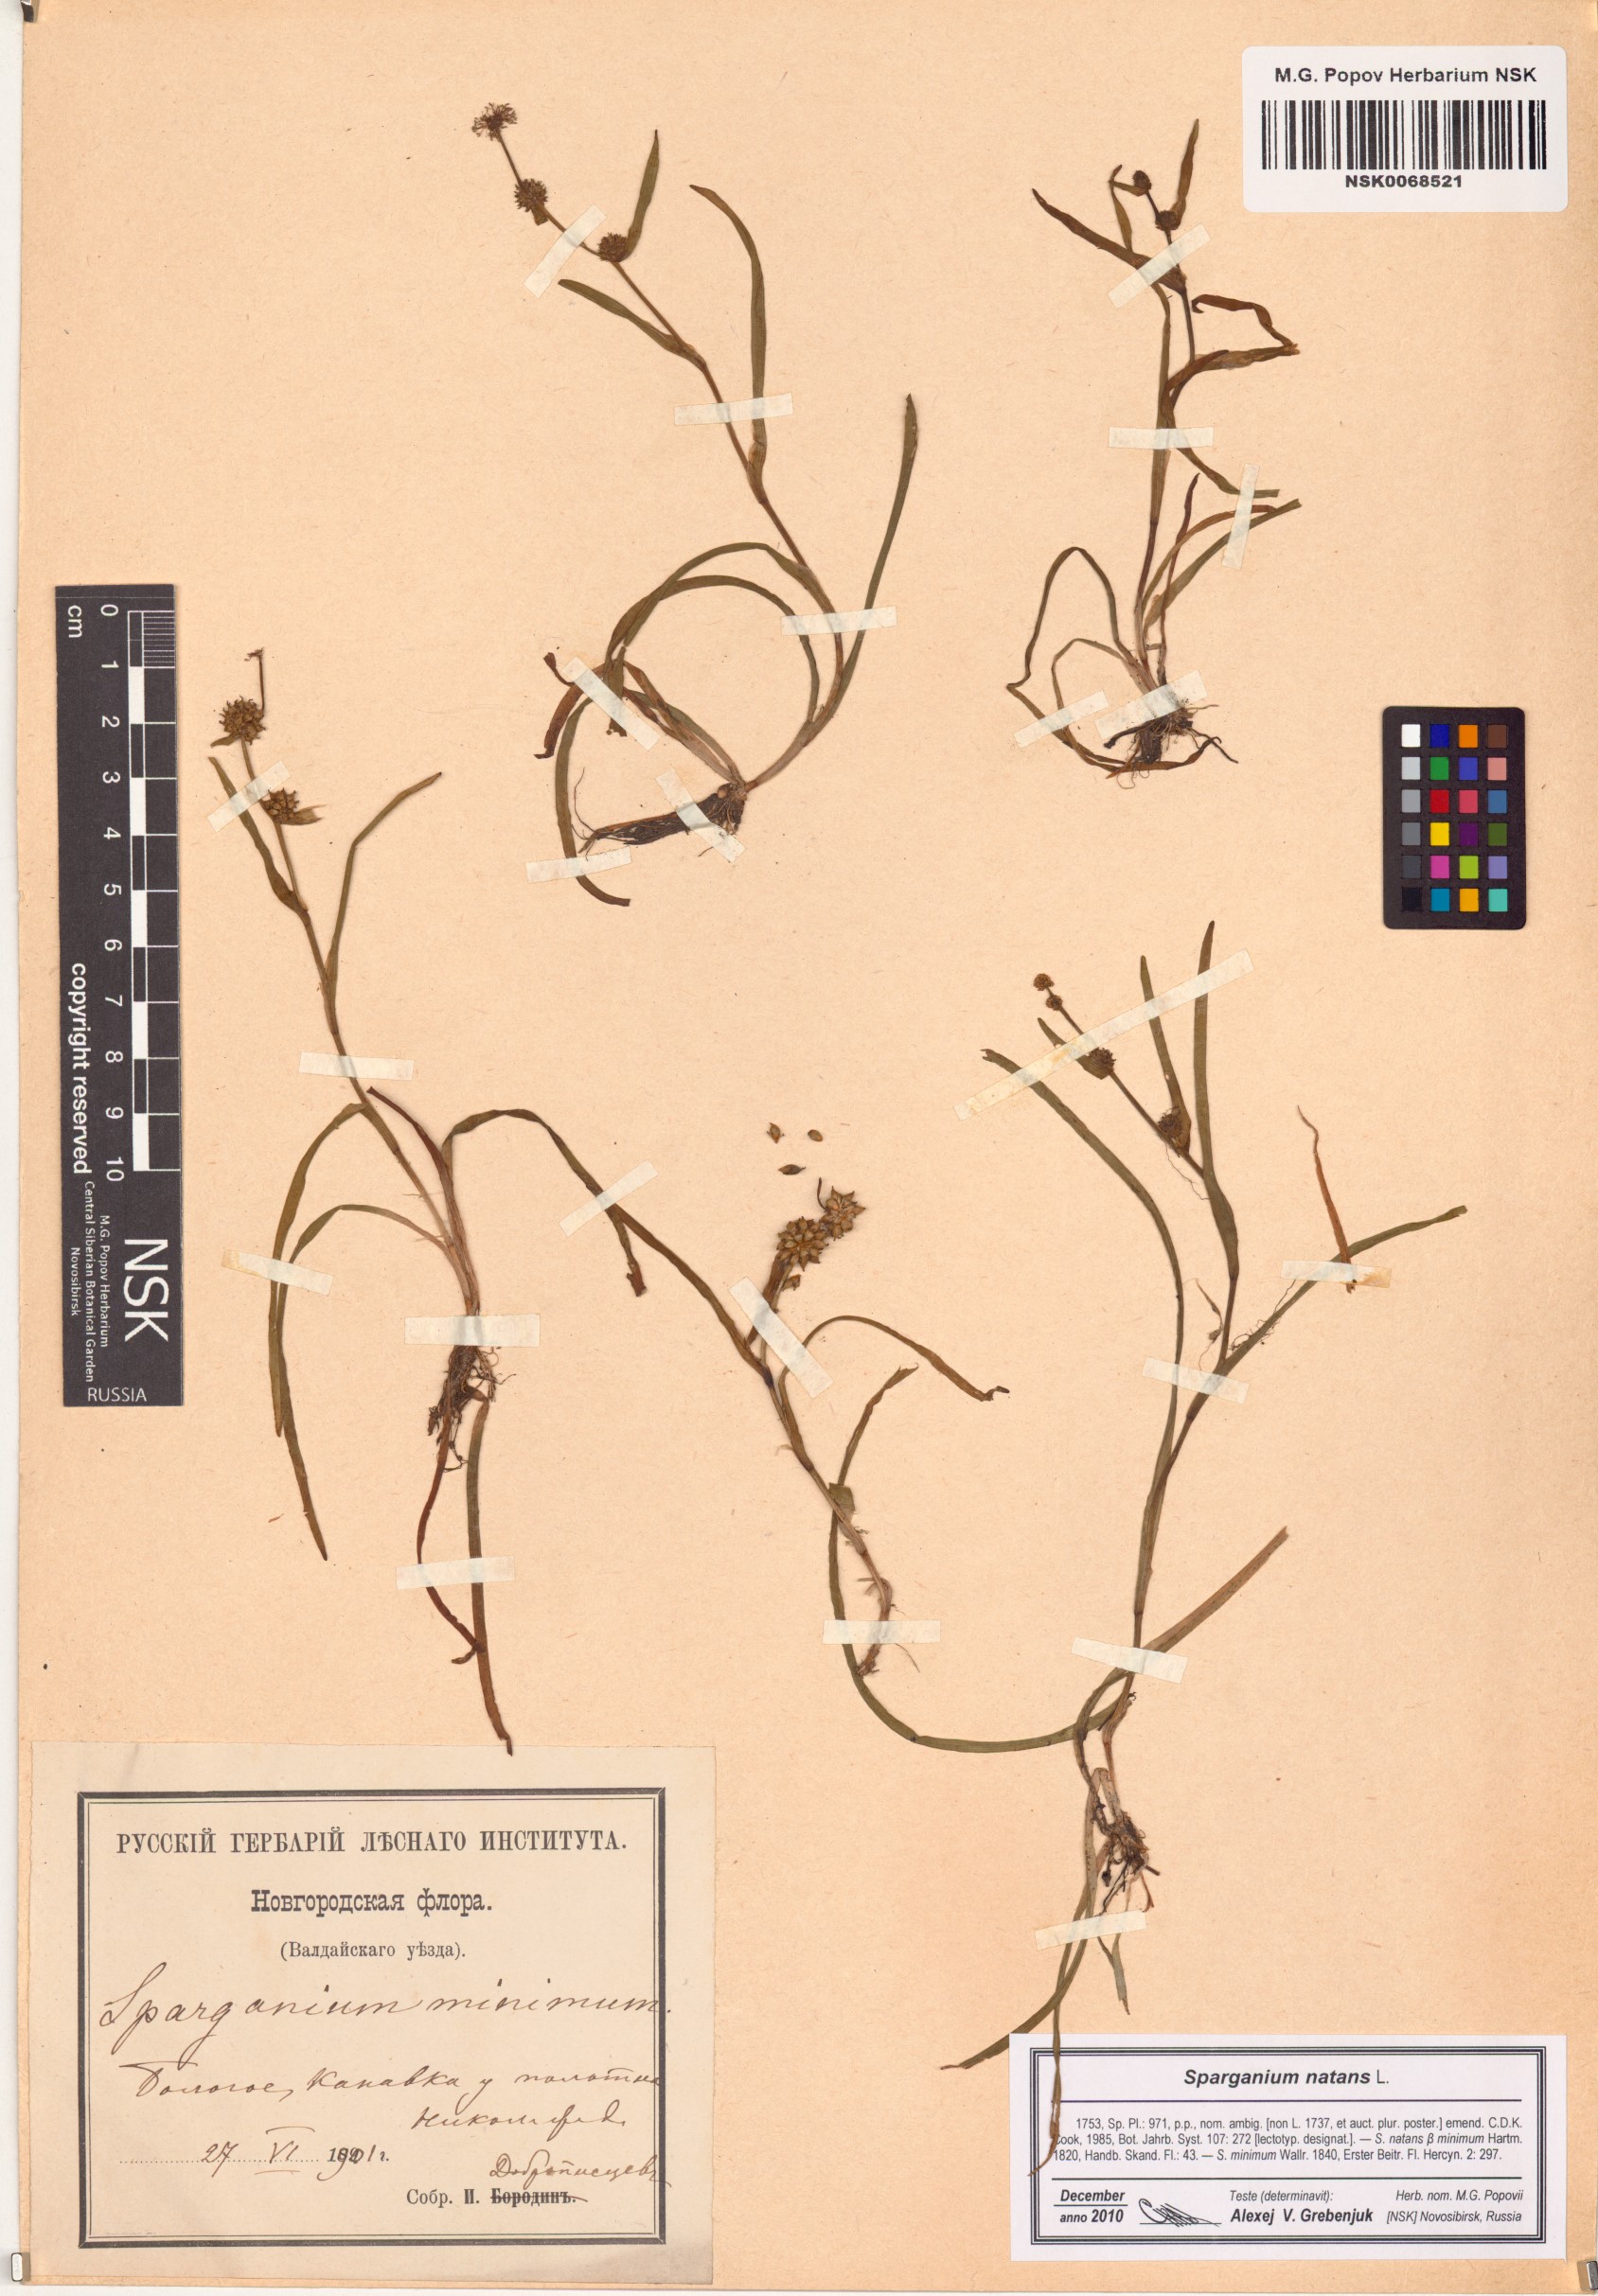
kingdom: Plantae
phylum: Tracheophyta
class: Liliopsida
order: Poales
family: Typhaceae
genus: Sparganium
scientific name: Sparganium natans
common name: Least bur-reed
